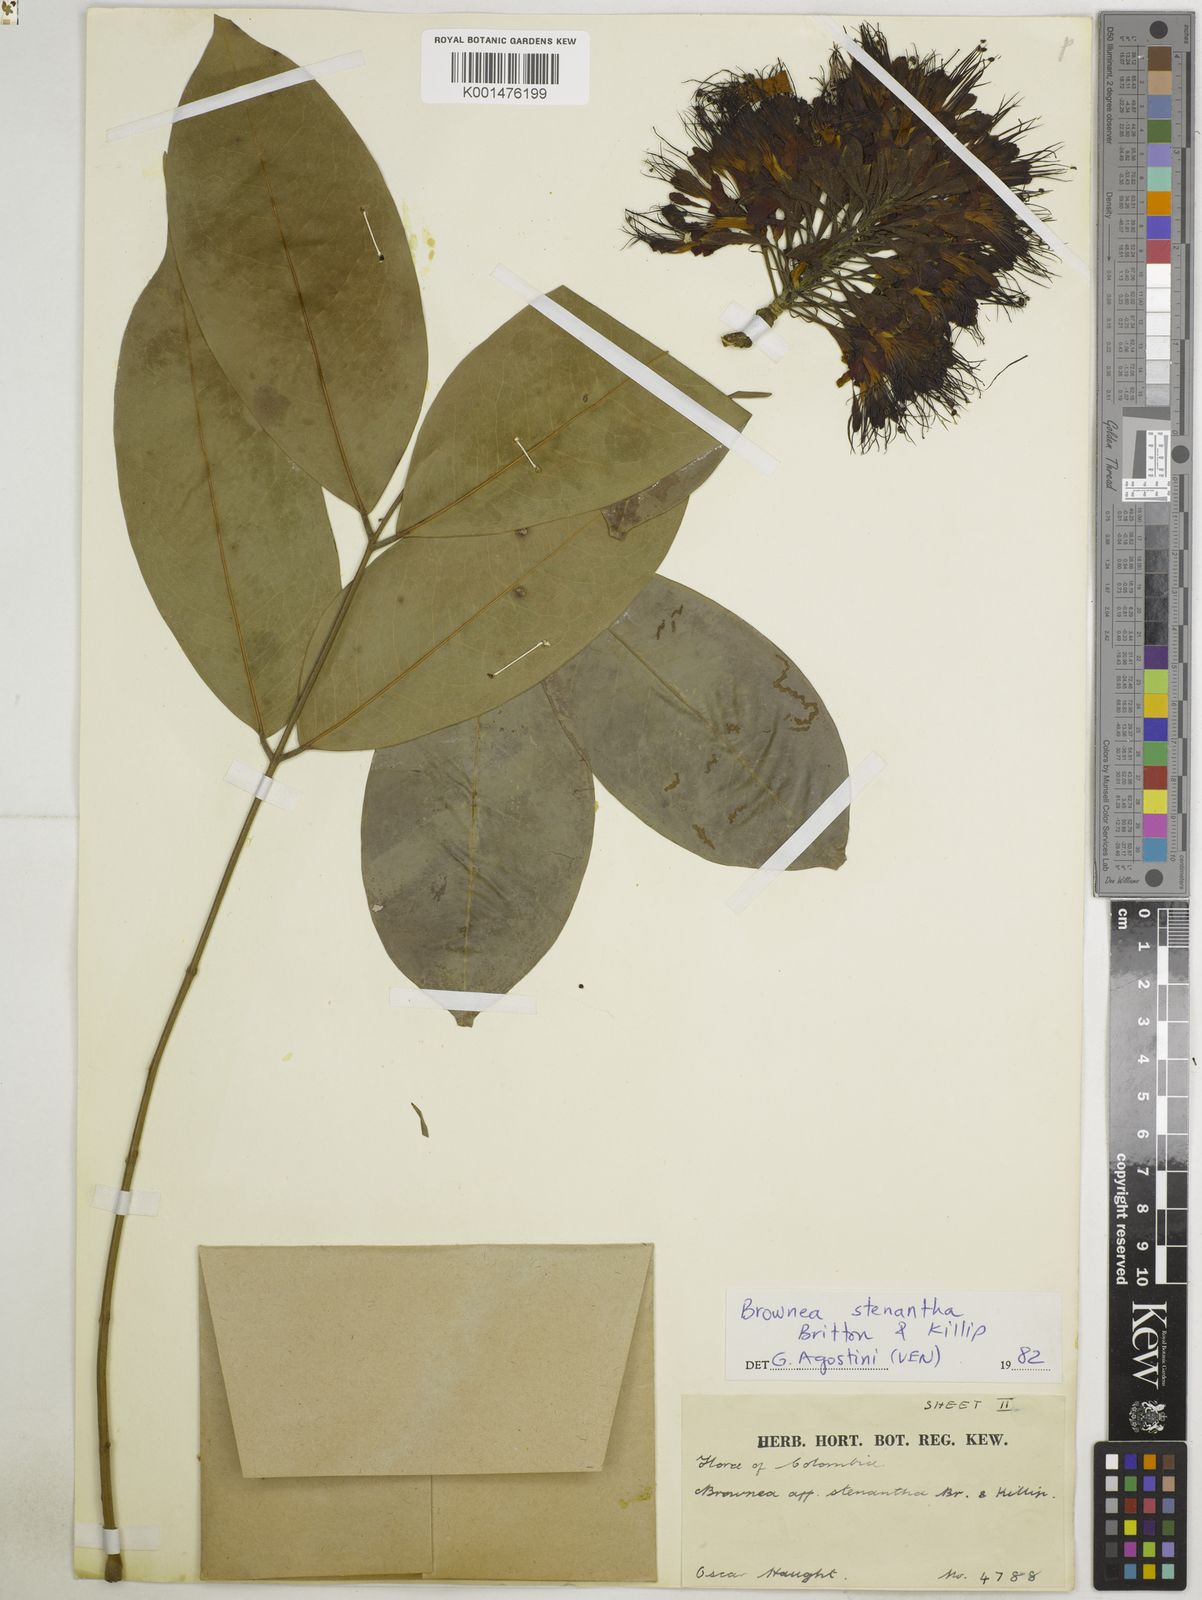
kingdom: Plantae
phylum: Tracheophyta
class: Magnoliopsida
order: Fabales
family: Fabaceae
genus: Brownea
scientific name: Brownea stenantha
